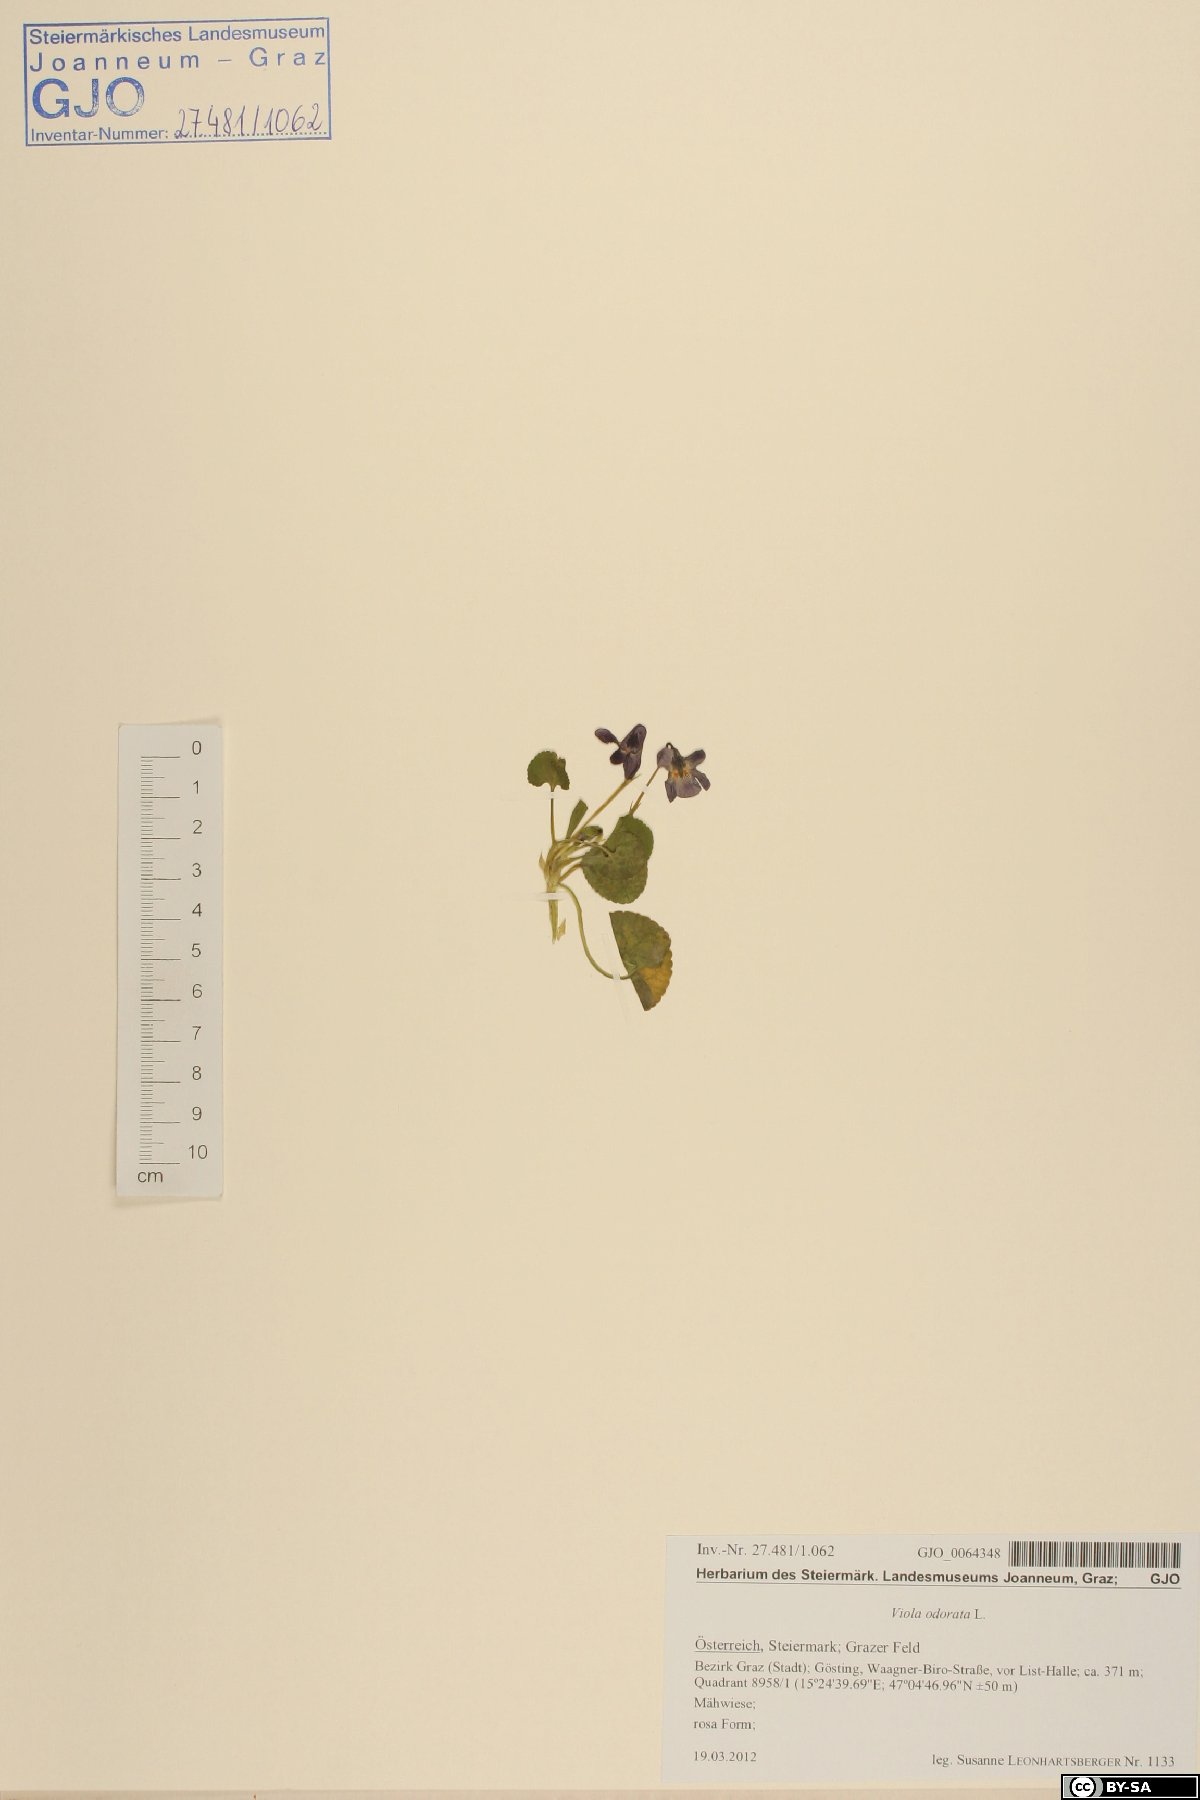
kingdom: Plantae
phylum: Tracheophyta
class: Magnoliopsida
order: Malpighiales
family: Violaceae
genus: Viola
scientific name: Viola odorata
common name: Sweet violet
